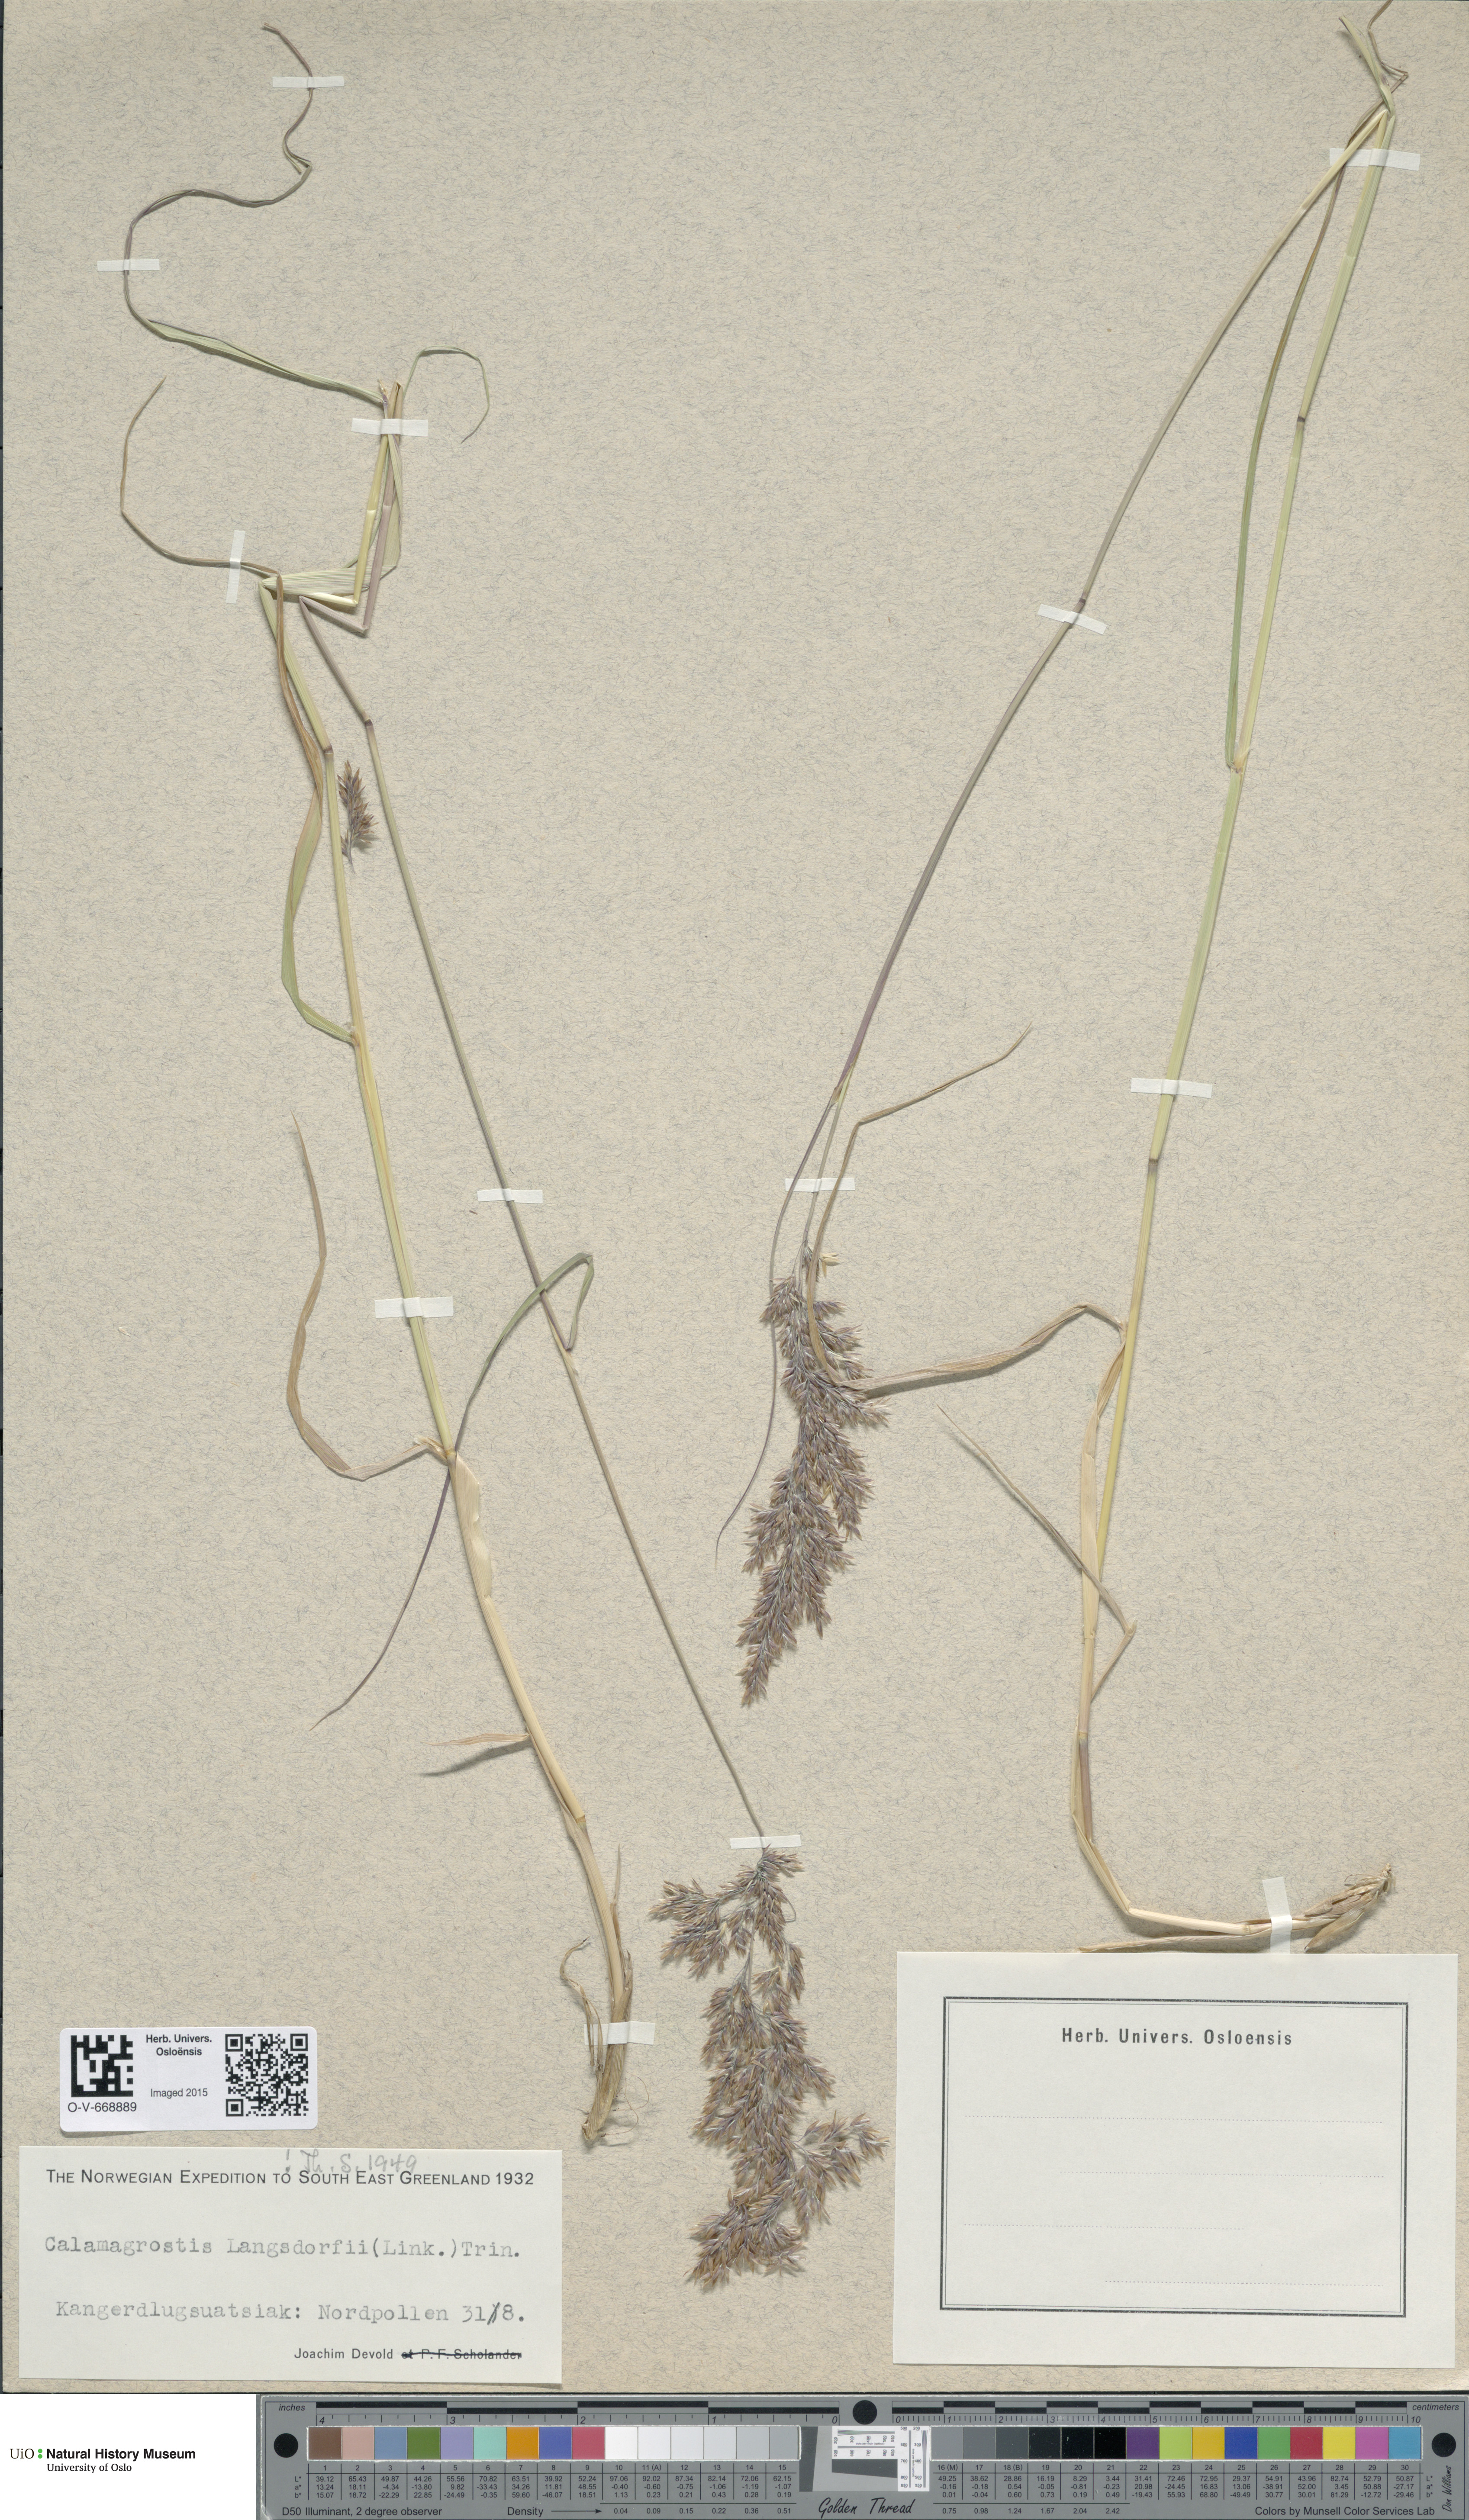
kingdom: Plantae
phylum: Tracheophyta
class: Liliopsida
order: Poales
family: Poaceae
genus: Calamagrostis
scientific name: Calamagrostis purpurea
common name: Scandinavian small-reed
